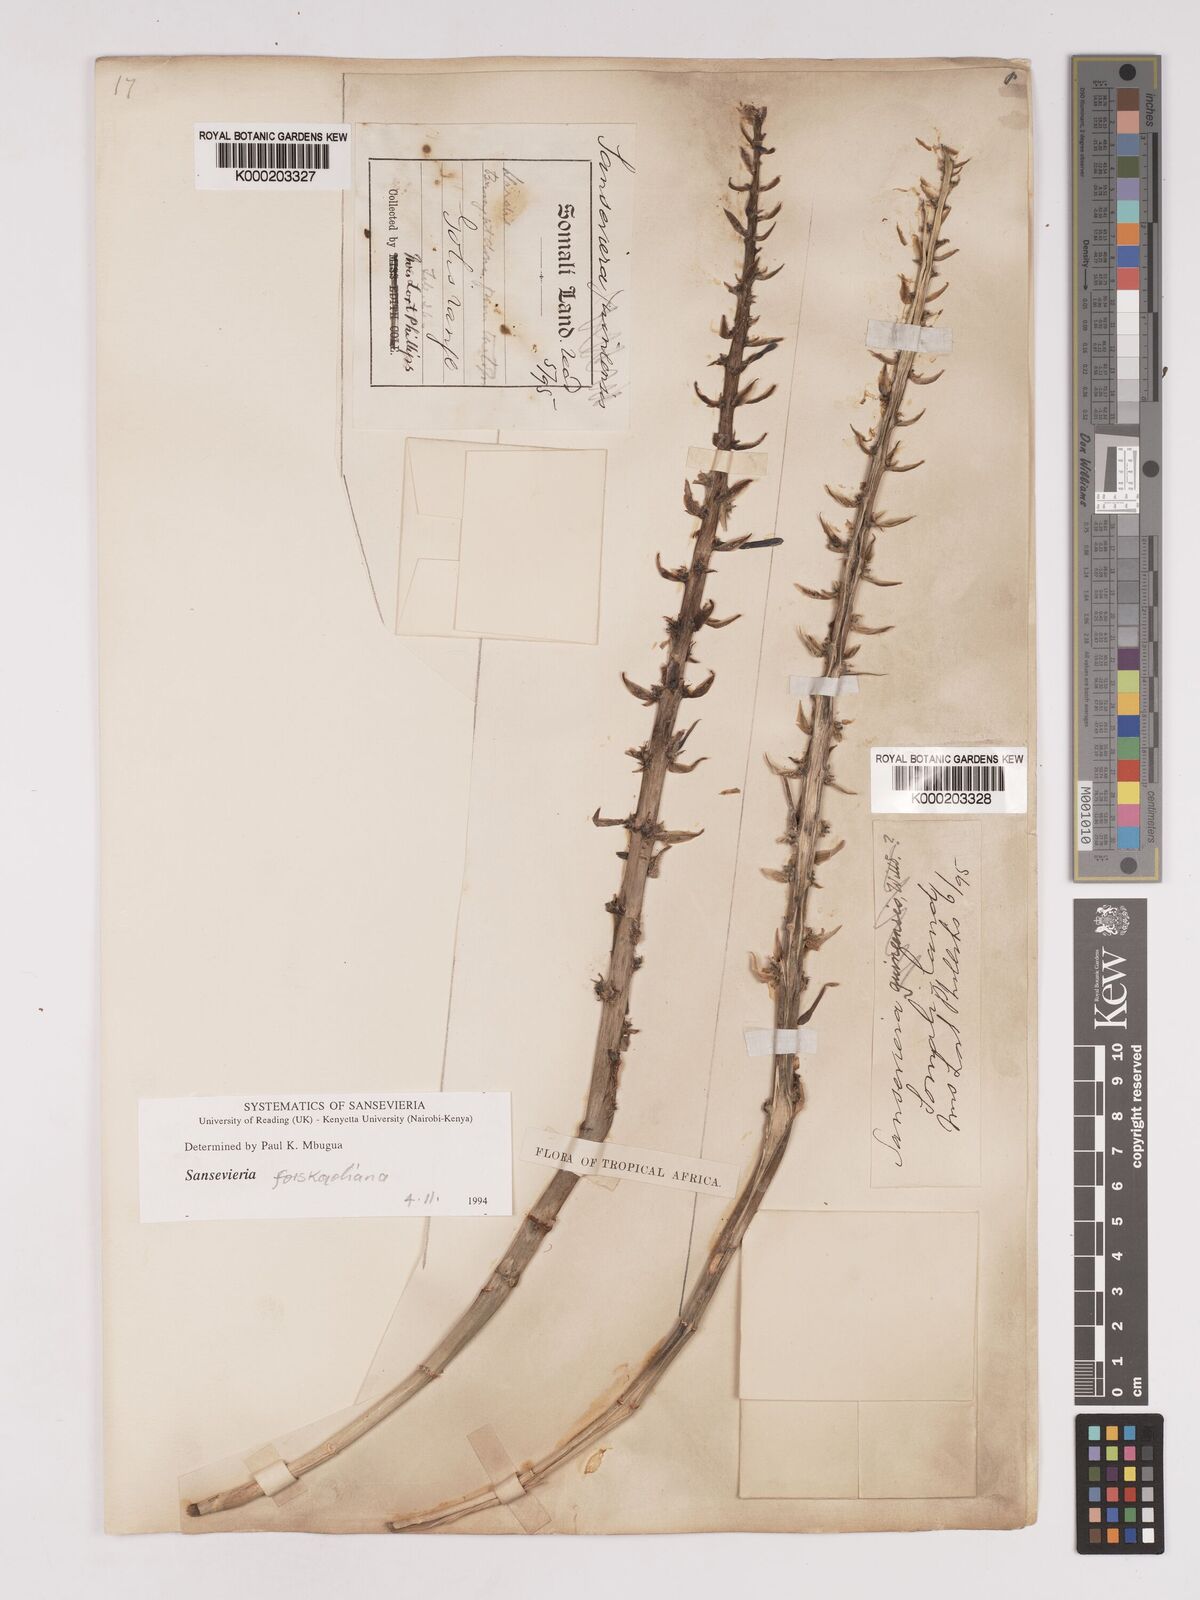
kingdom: Plantae
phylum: Tracheophyta
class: Liliopsida
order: Asparagales
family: Asparagaceae
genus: Dracaena
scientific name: Dracaena
